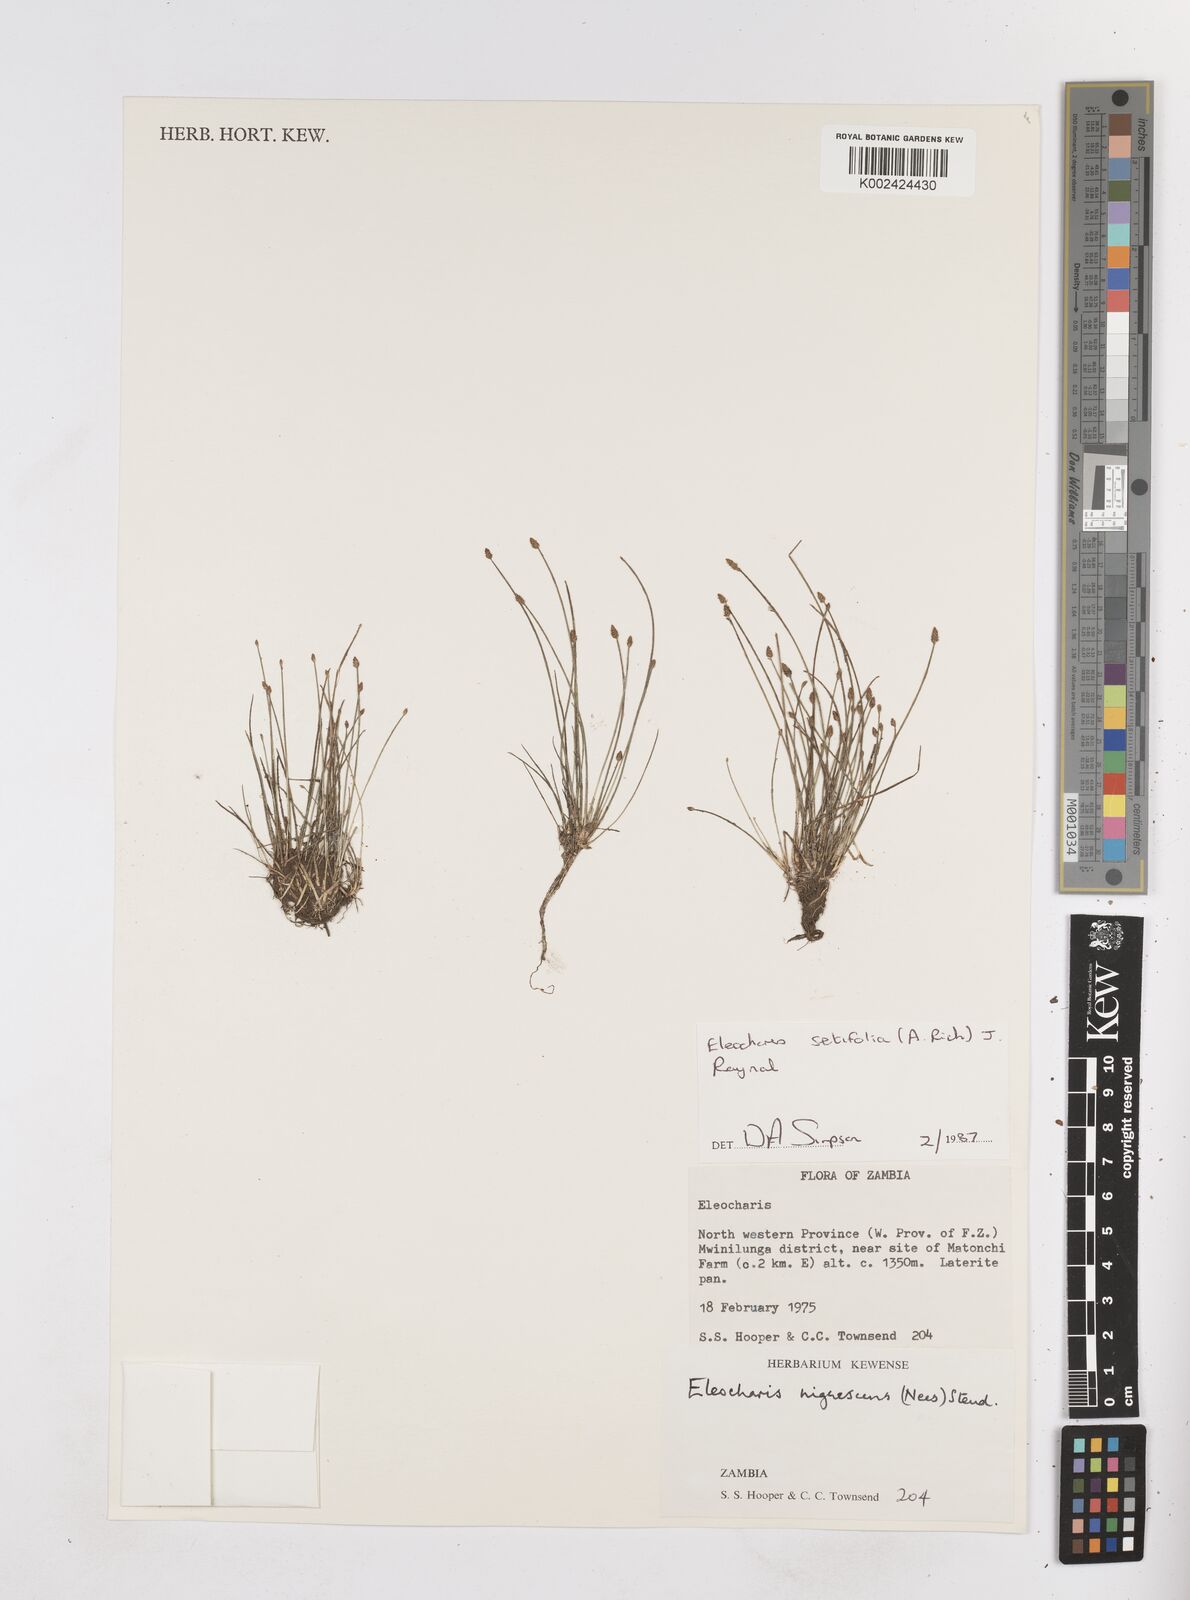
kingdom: Plantae
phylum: Tracheophyta
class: Liliopsida
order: Poales
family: Cyperaceae
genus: Eleocharis
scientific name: Eleocharis setifolia
